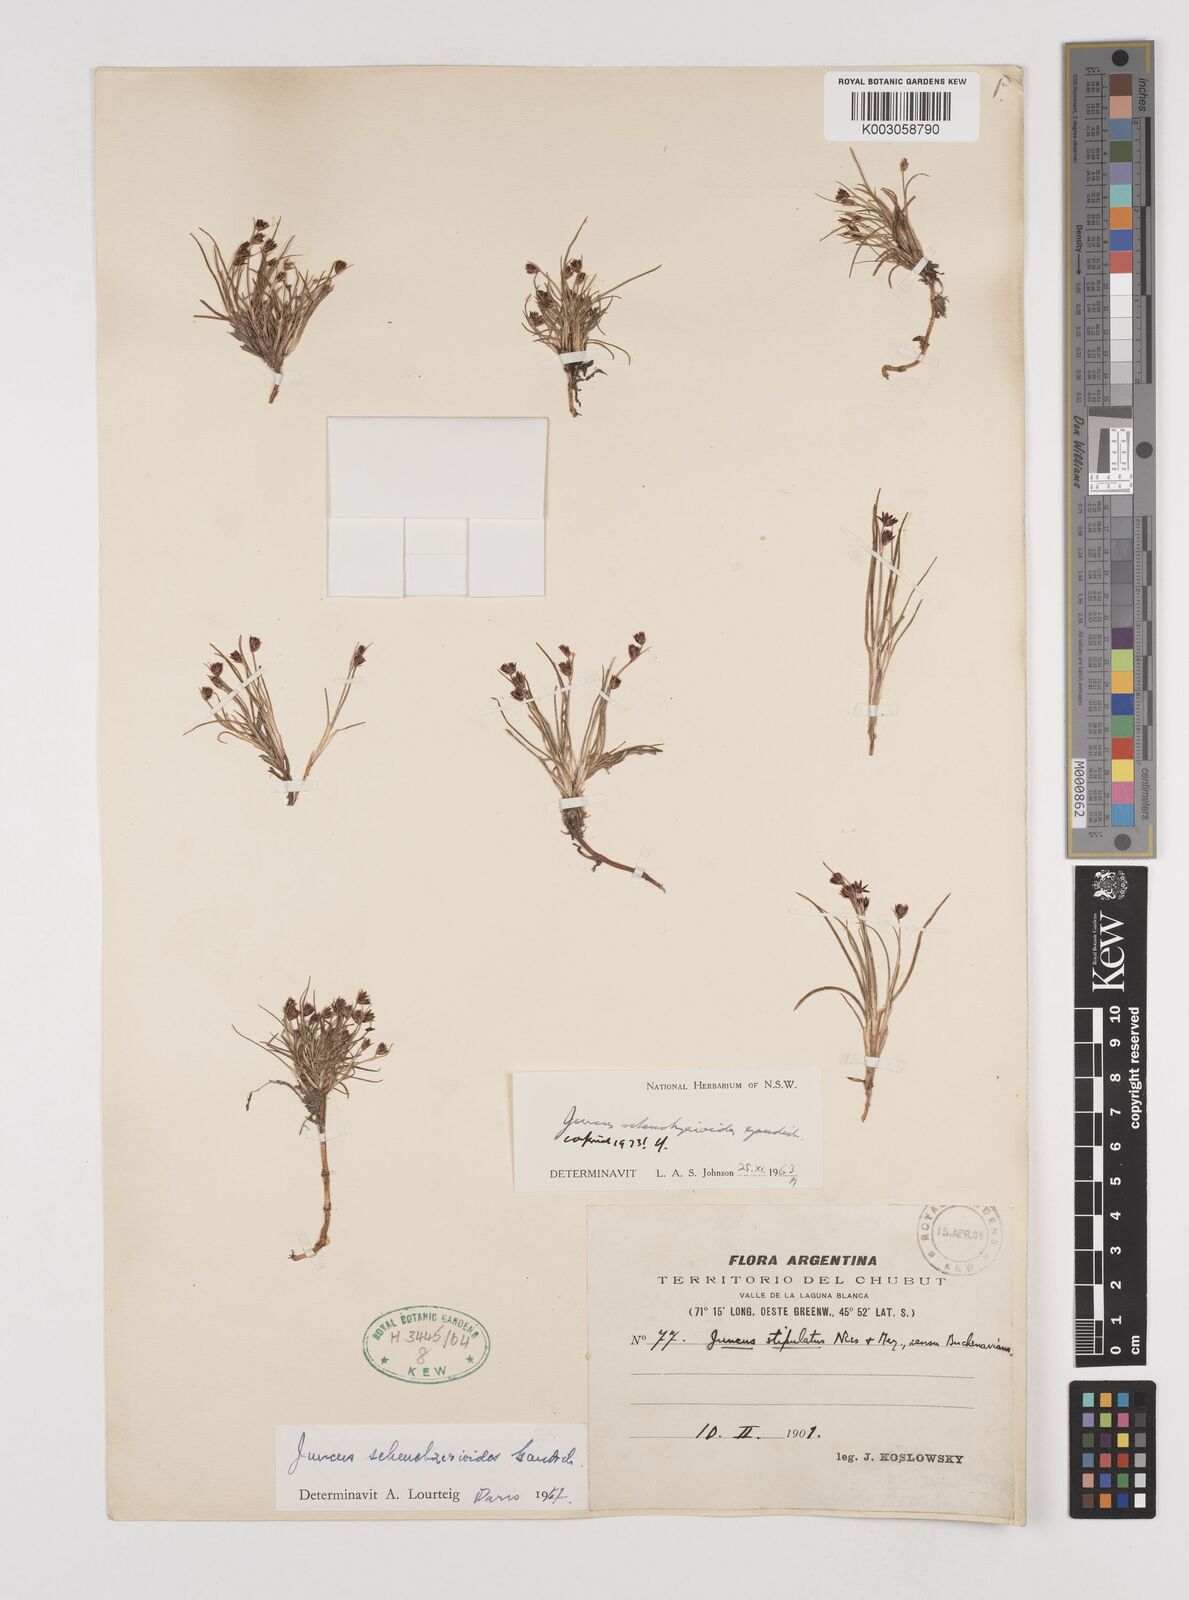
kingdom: Plantae
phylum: Tracheophyta
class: Liliopsida
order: Poales
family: Juncaceae
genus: Juncus
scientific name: Juncus scheuchzerioides
